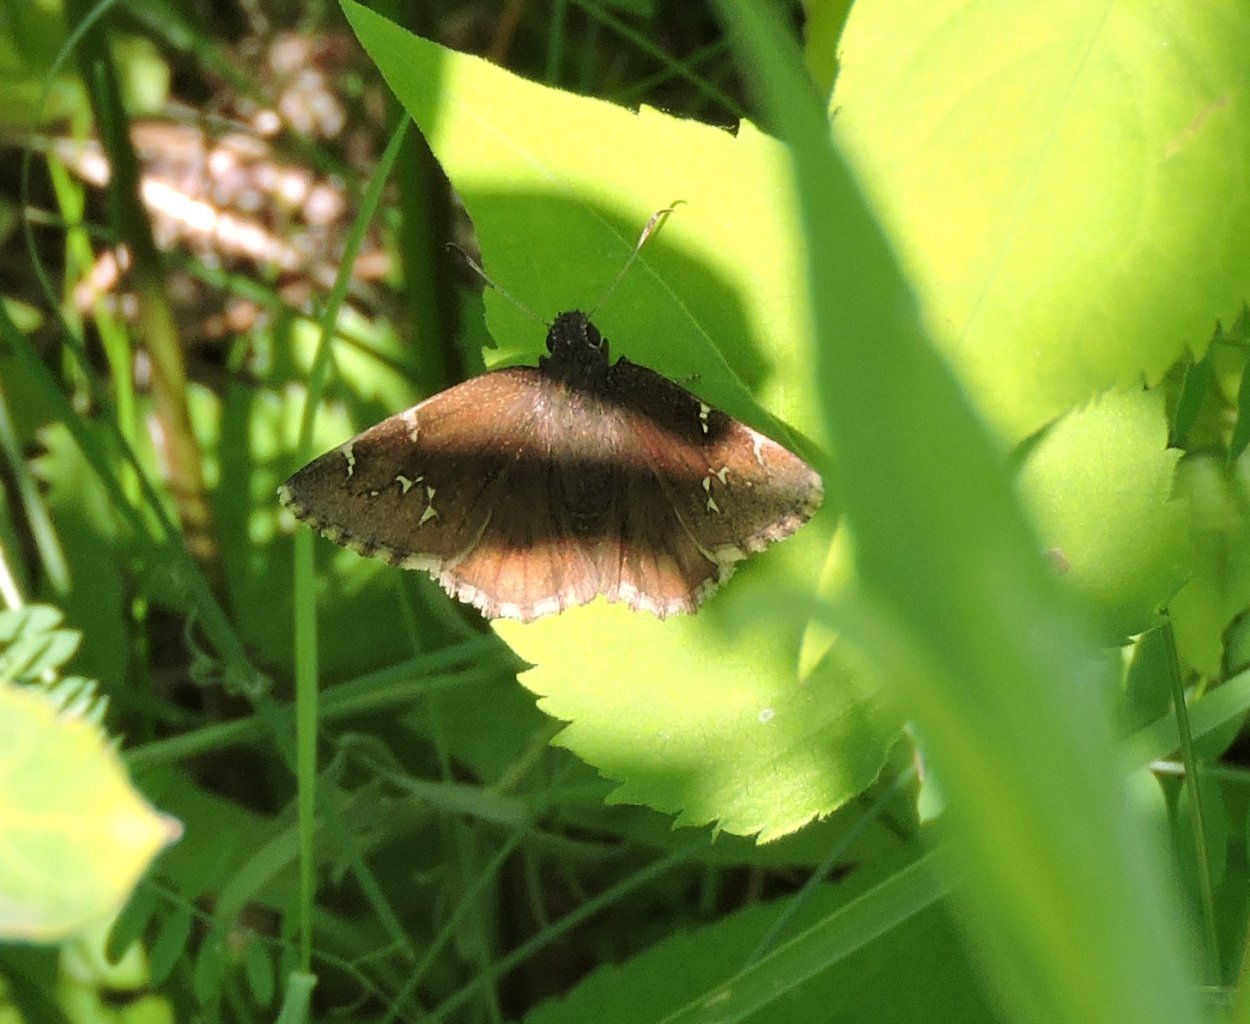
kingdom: Animalia
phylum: Arthropoda
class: Insecta
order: Lepidoptera
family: Hesperiidae
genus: Autochton
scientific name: Autochton
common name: Northern Cloudywing
